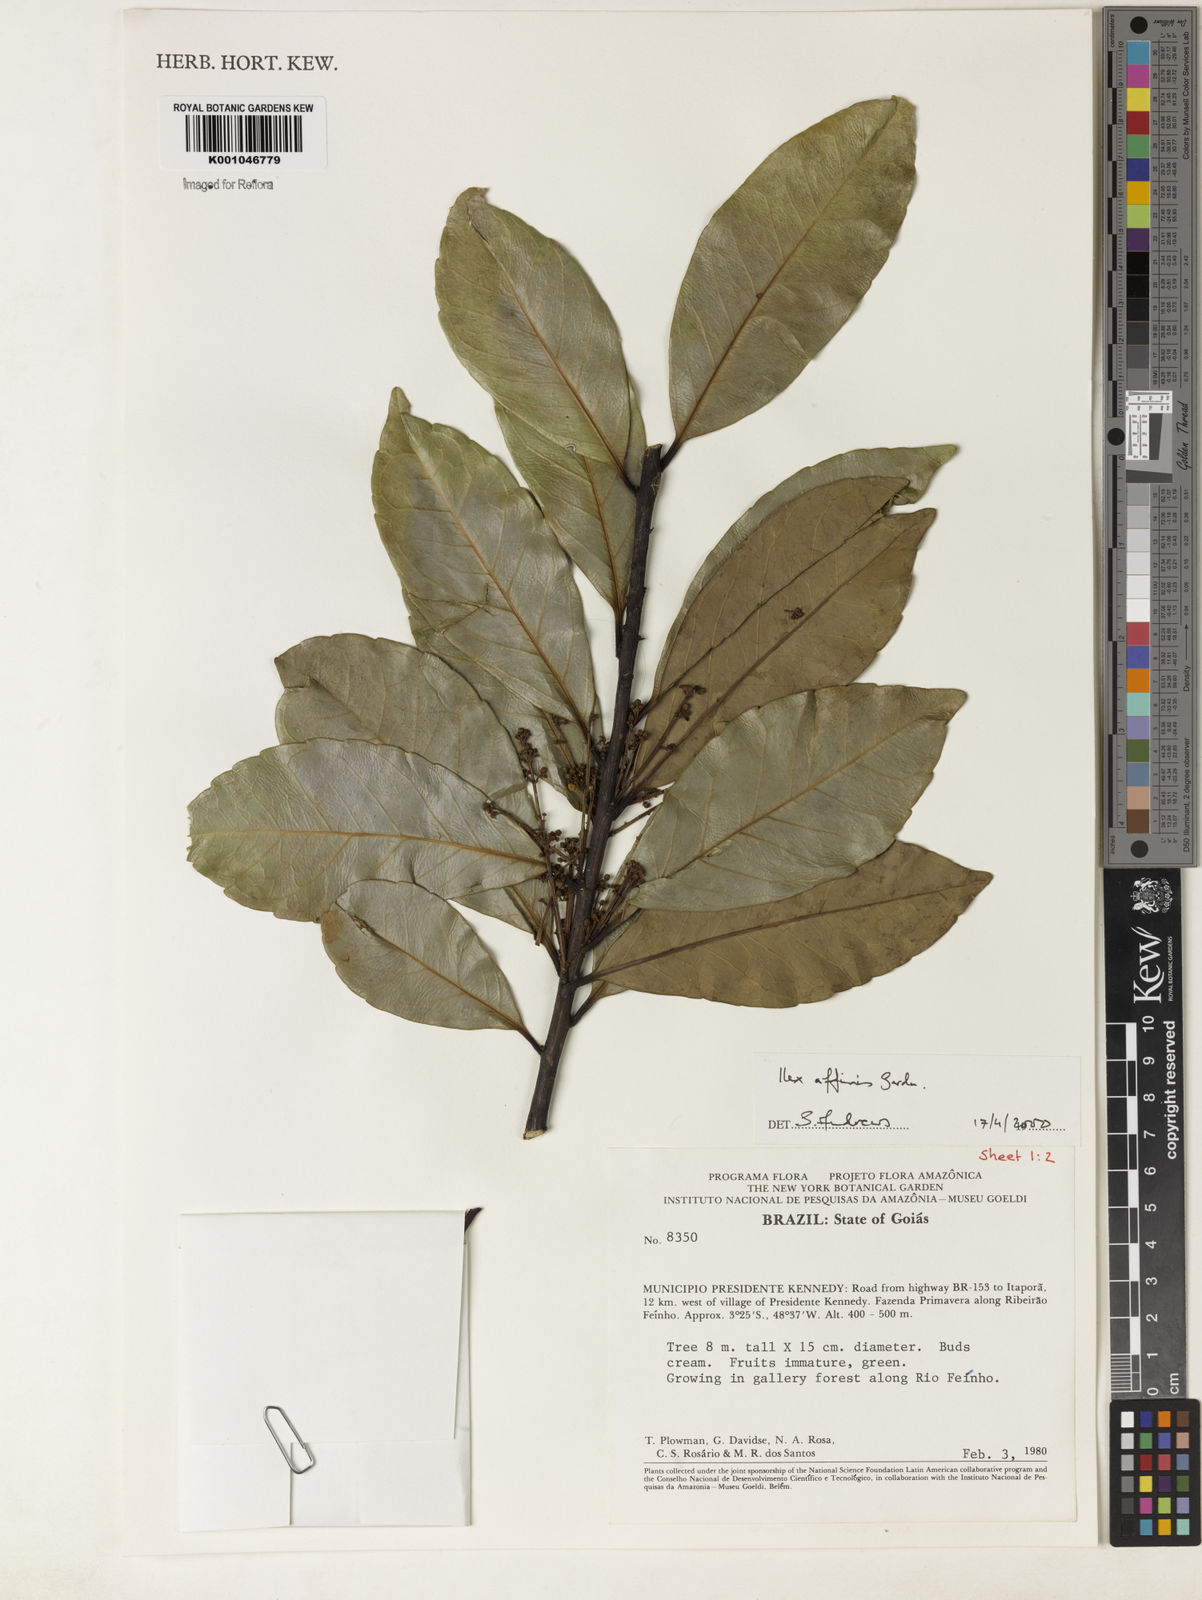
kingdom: Plantae
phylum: Tracheophyta
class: Magnoliopsida
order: Aquifoliales
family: Aquifoliaceae
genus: Ilex
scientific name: Ilex affinis
